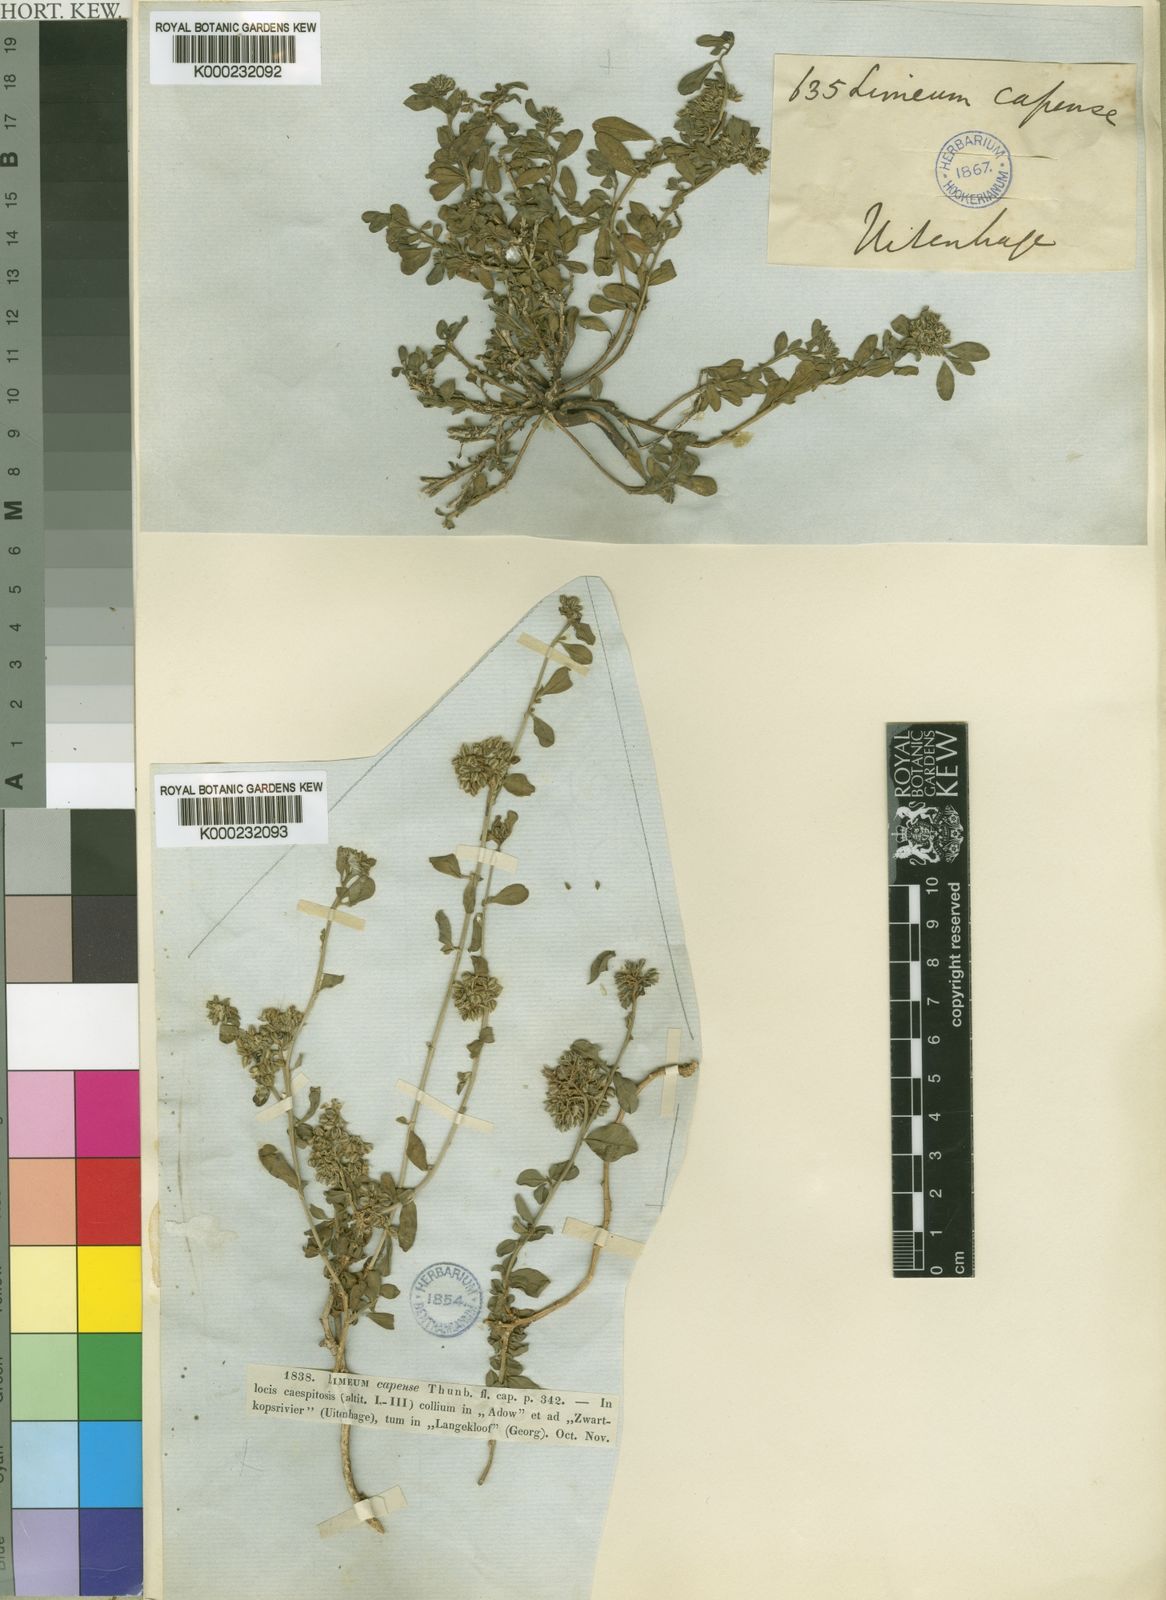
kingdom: Plantae
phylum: Tracheophyta
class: Magnoliopsida
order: Caryophyllales
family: Limeaceae
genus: Limeum
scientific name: Limeum telephioides
